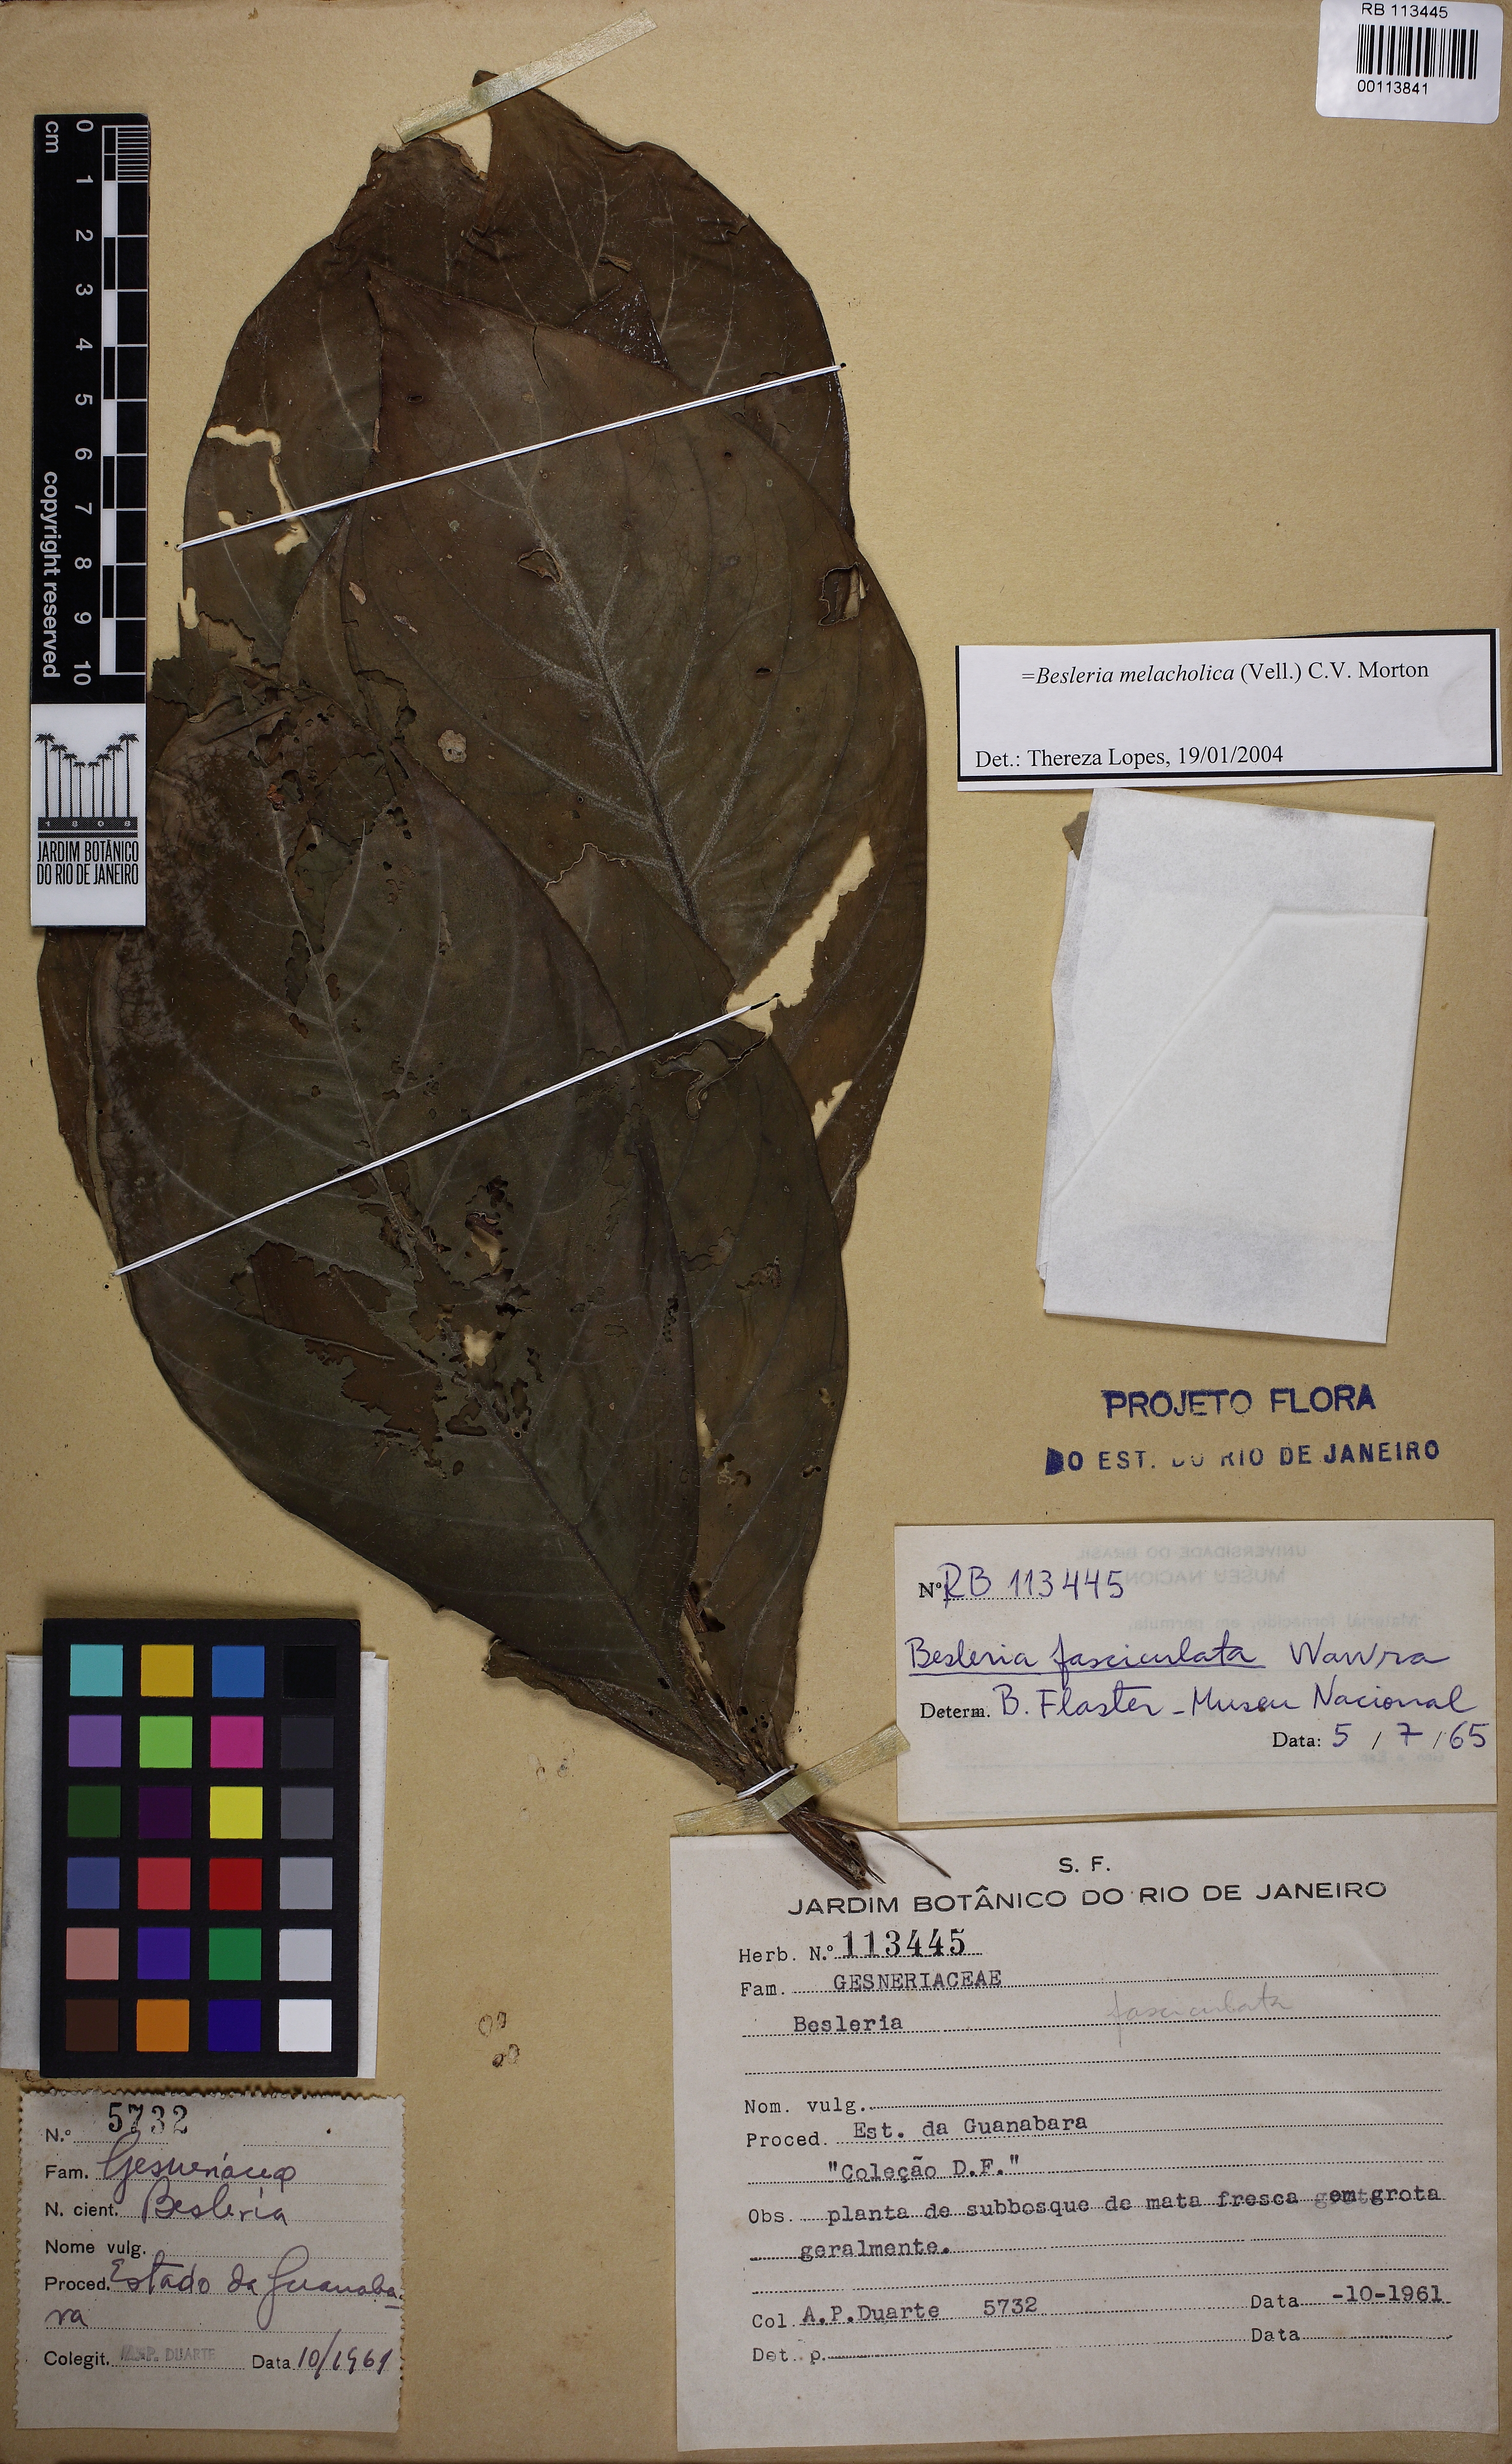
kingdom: Plantae
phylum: Tracheophyta
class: Magnoliopsida
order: Lamiales
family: Gesneriaceae
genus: Besleria
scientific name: Besleria melancholica
